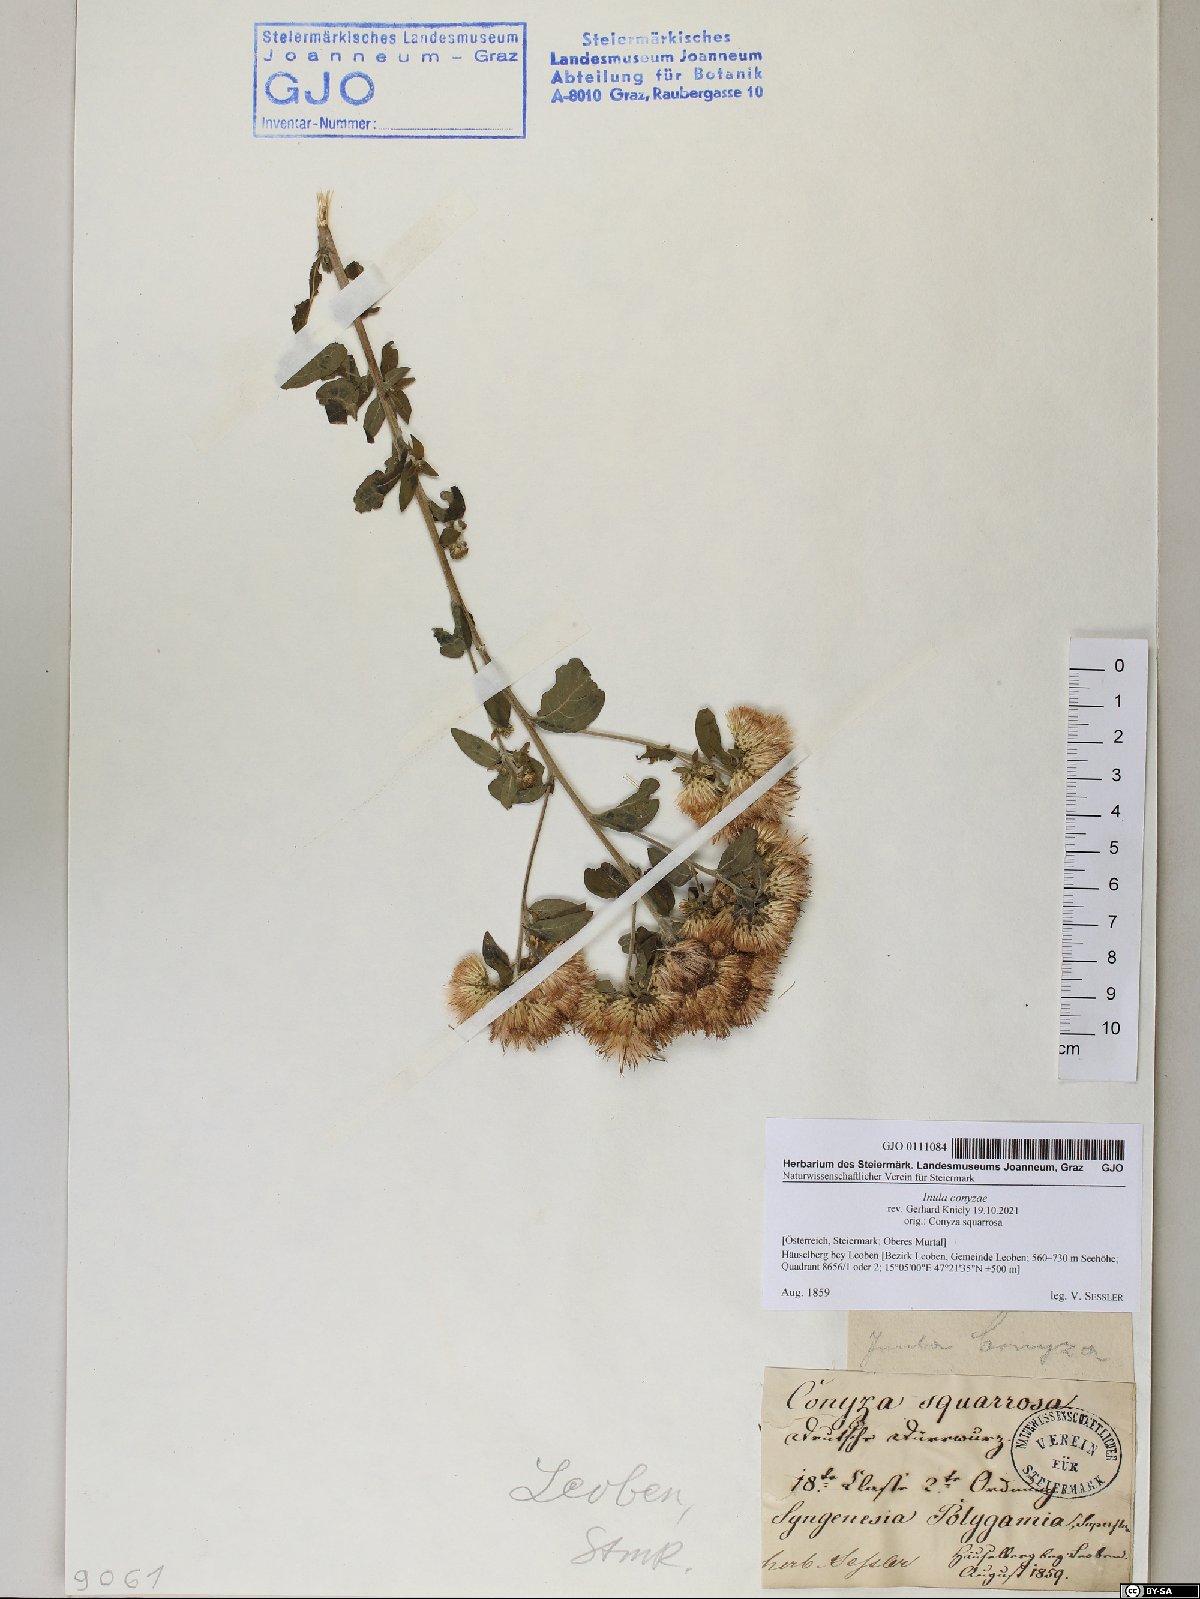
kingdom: Plantae
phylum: Tracheophyta
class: Magnoliopsida
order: Asterales
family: Asteraceae
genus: Pentanema
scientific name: Pentanema squarrosum
